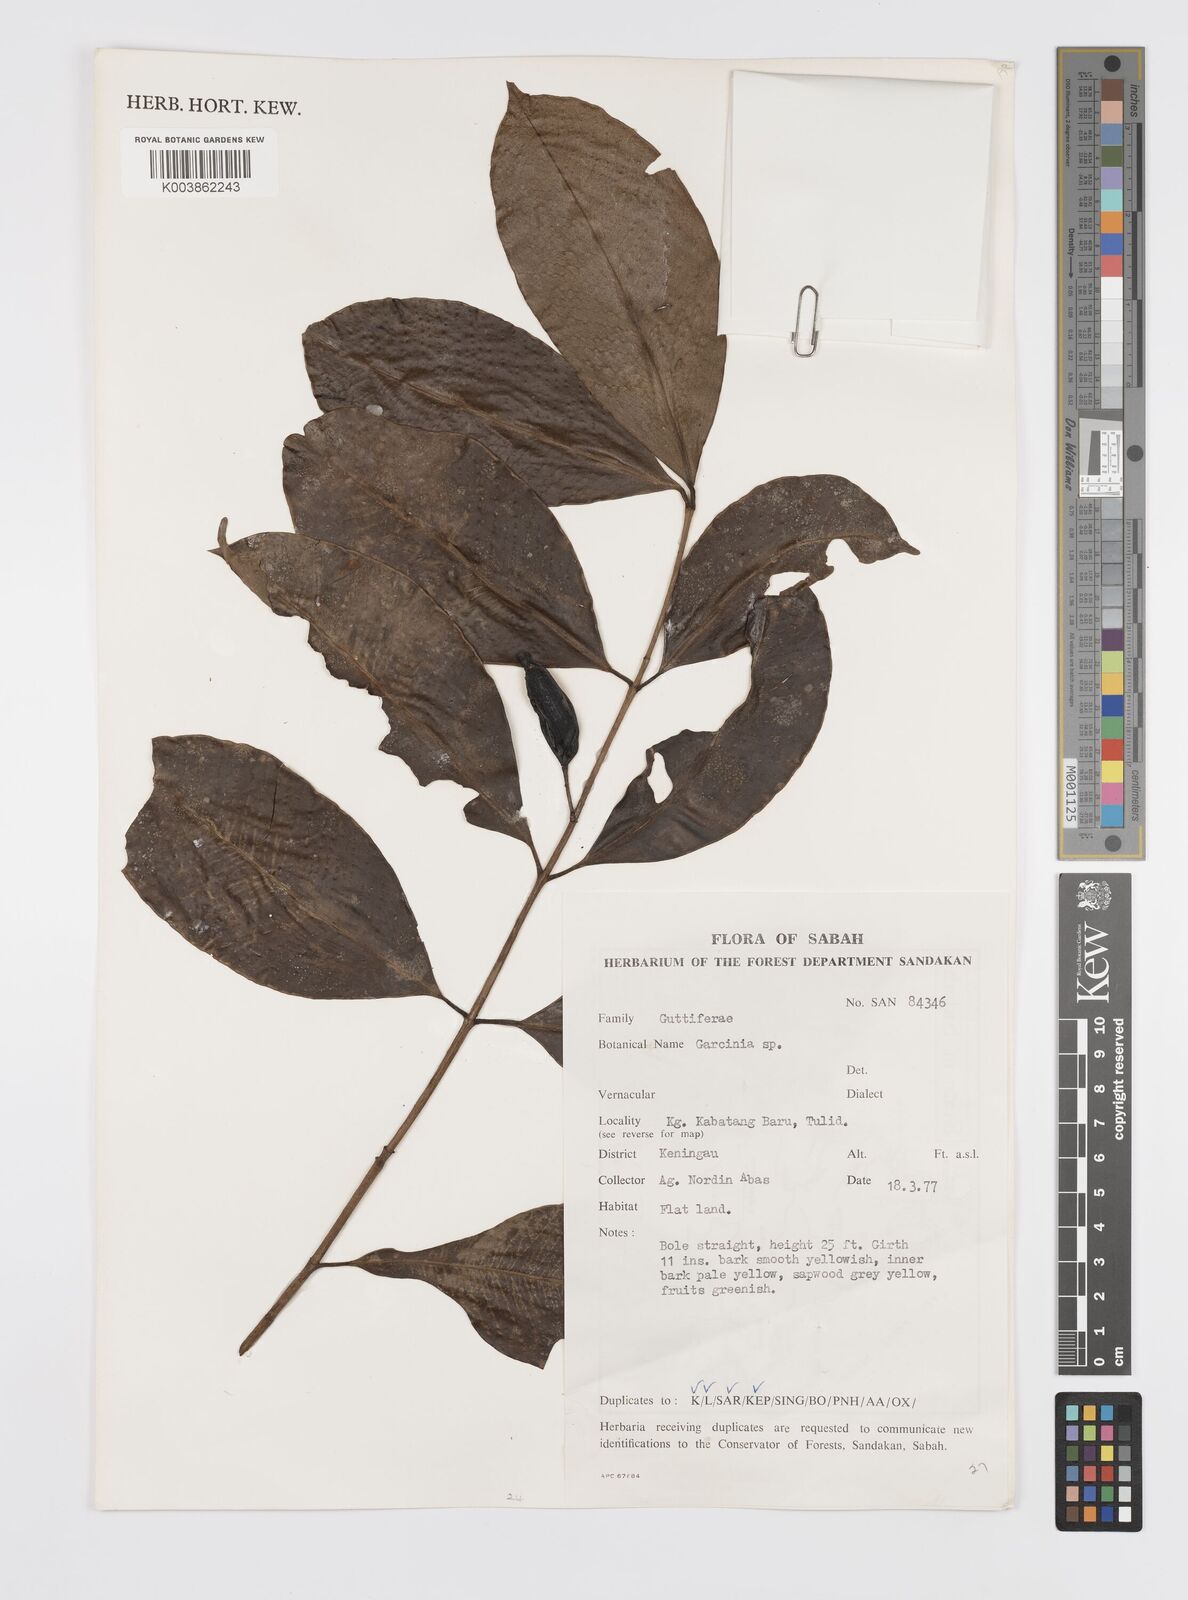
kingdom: Plantae
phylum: Tracheophyta
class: Magnoliopsida
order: Malpighiales
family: Clusiaceae
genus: Garcinia
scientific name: Garcinia
